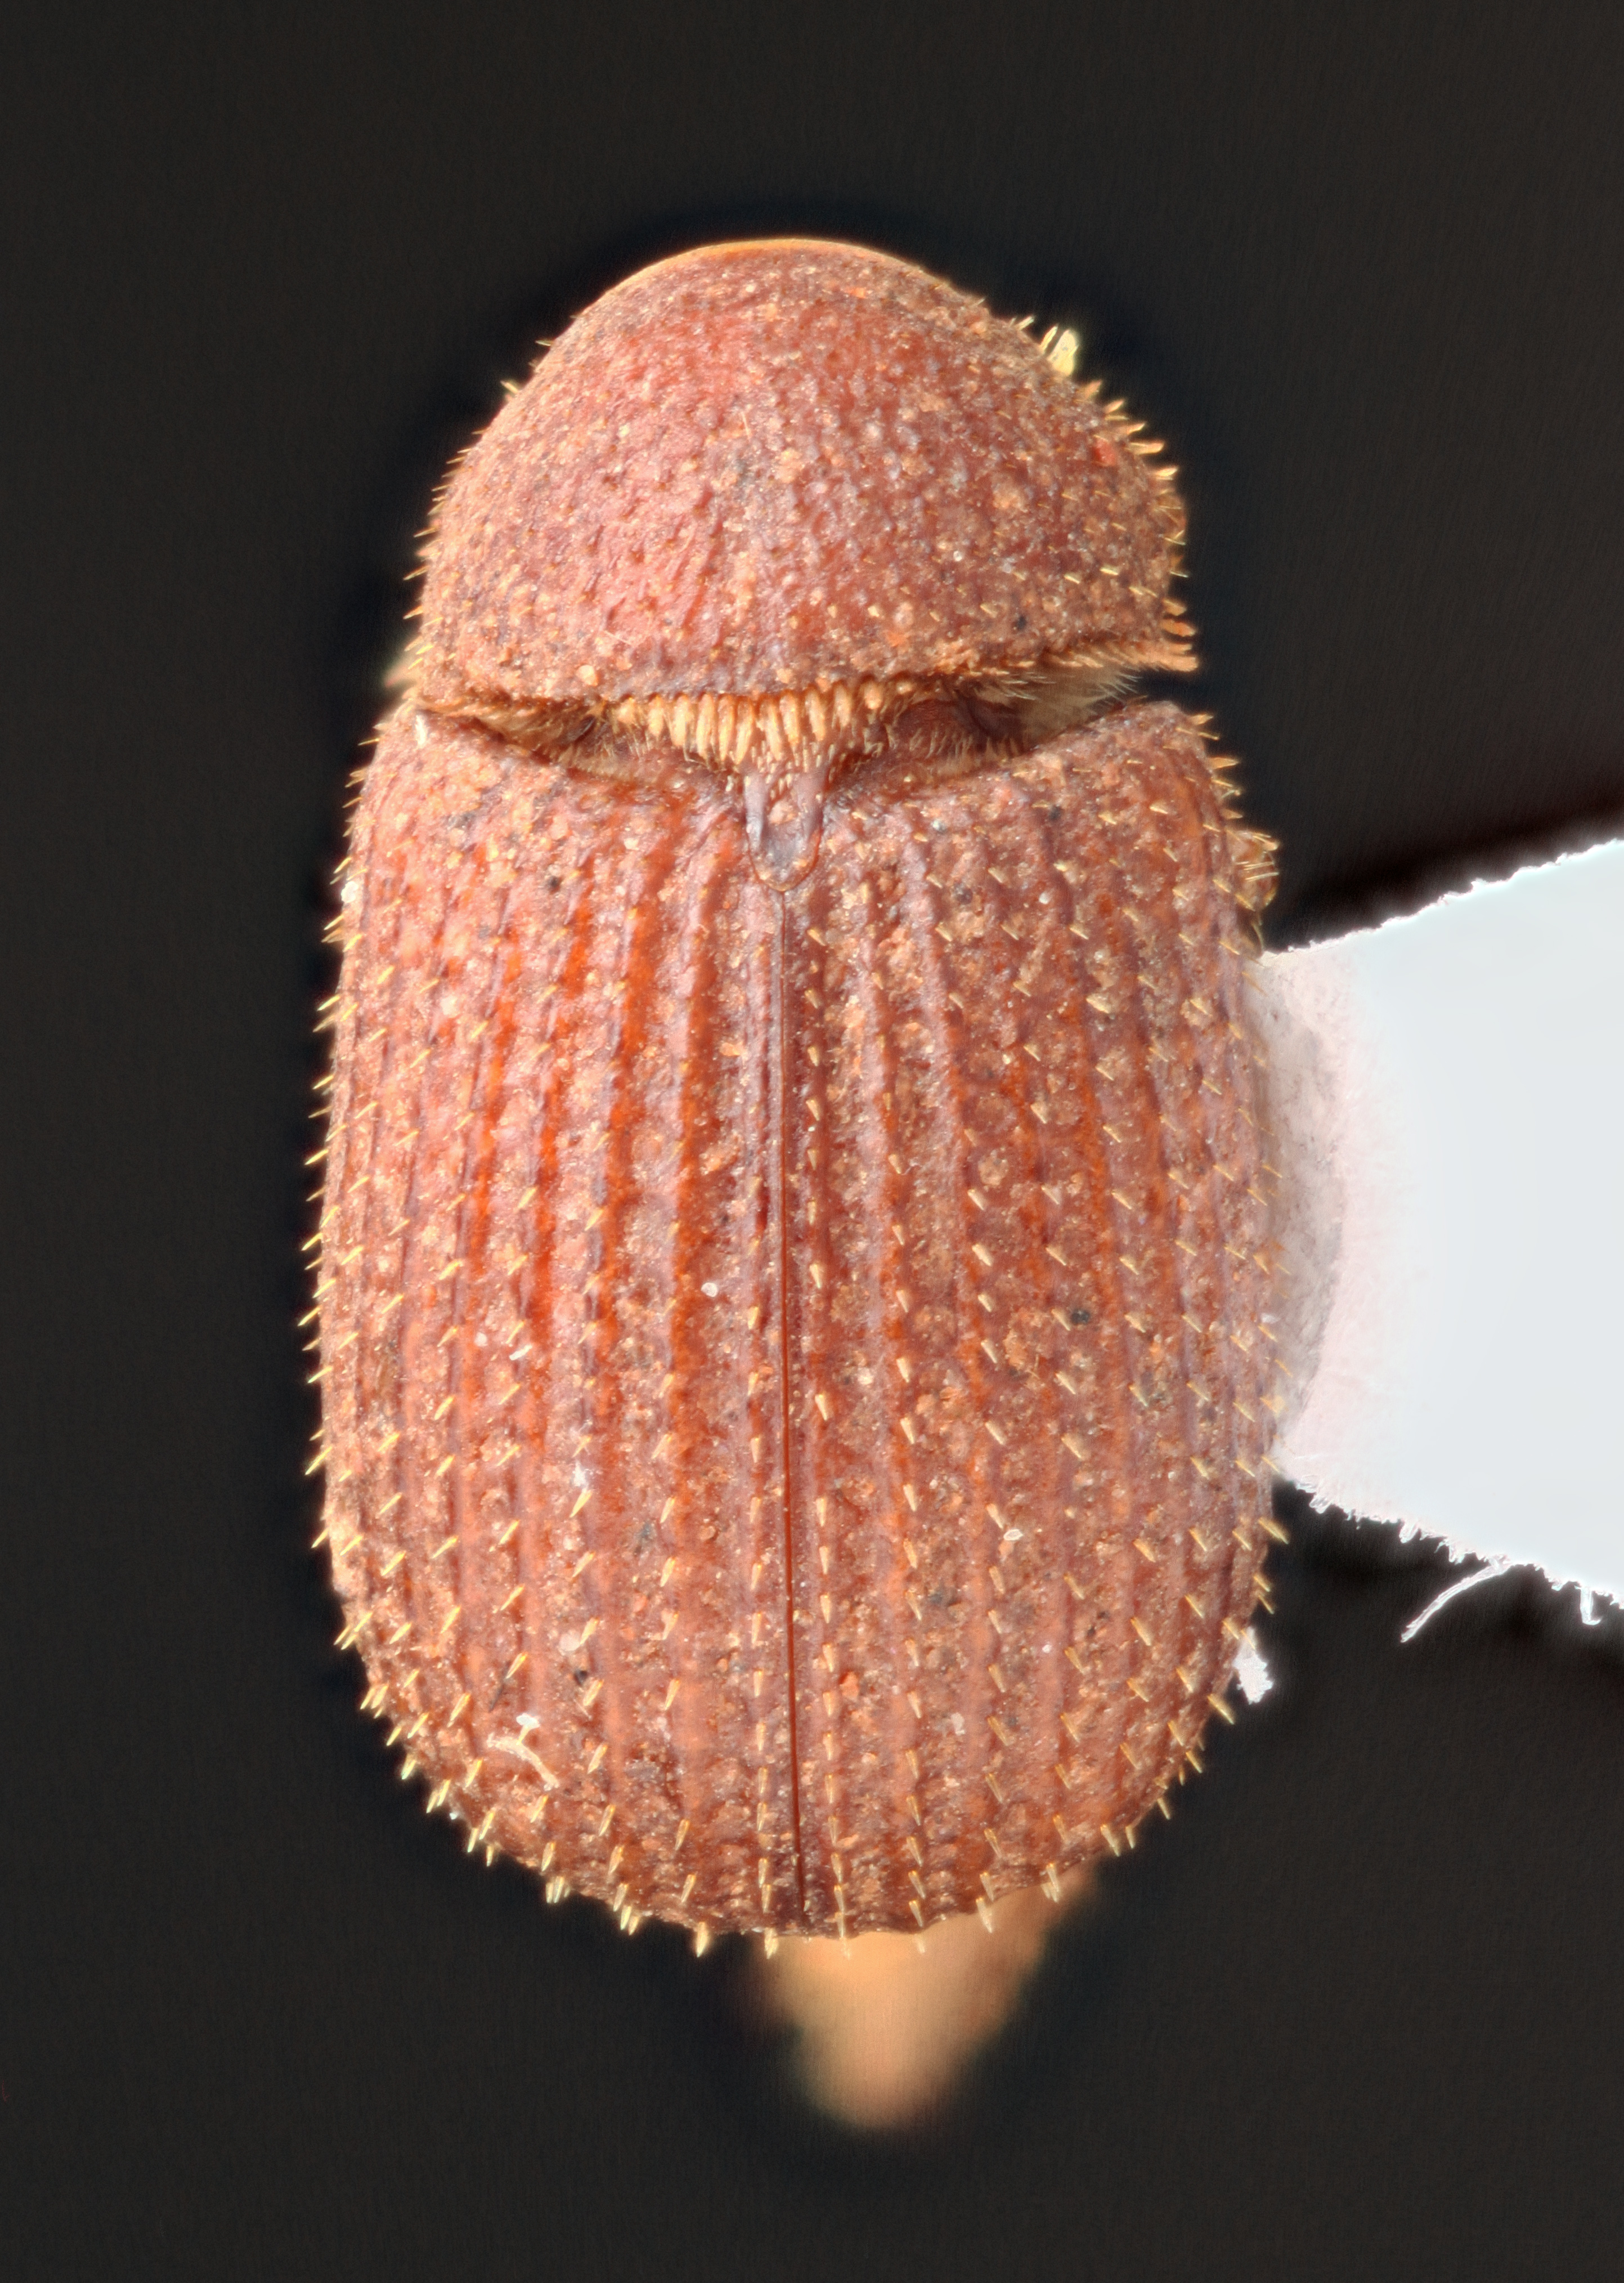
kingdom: Animalia
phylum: Arthropoda
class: Insecta
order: Coleoptera
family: Glaresidae
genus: Glaresis
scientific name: Glaresis
